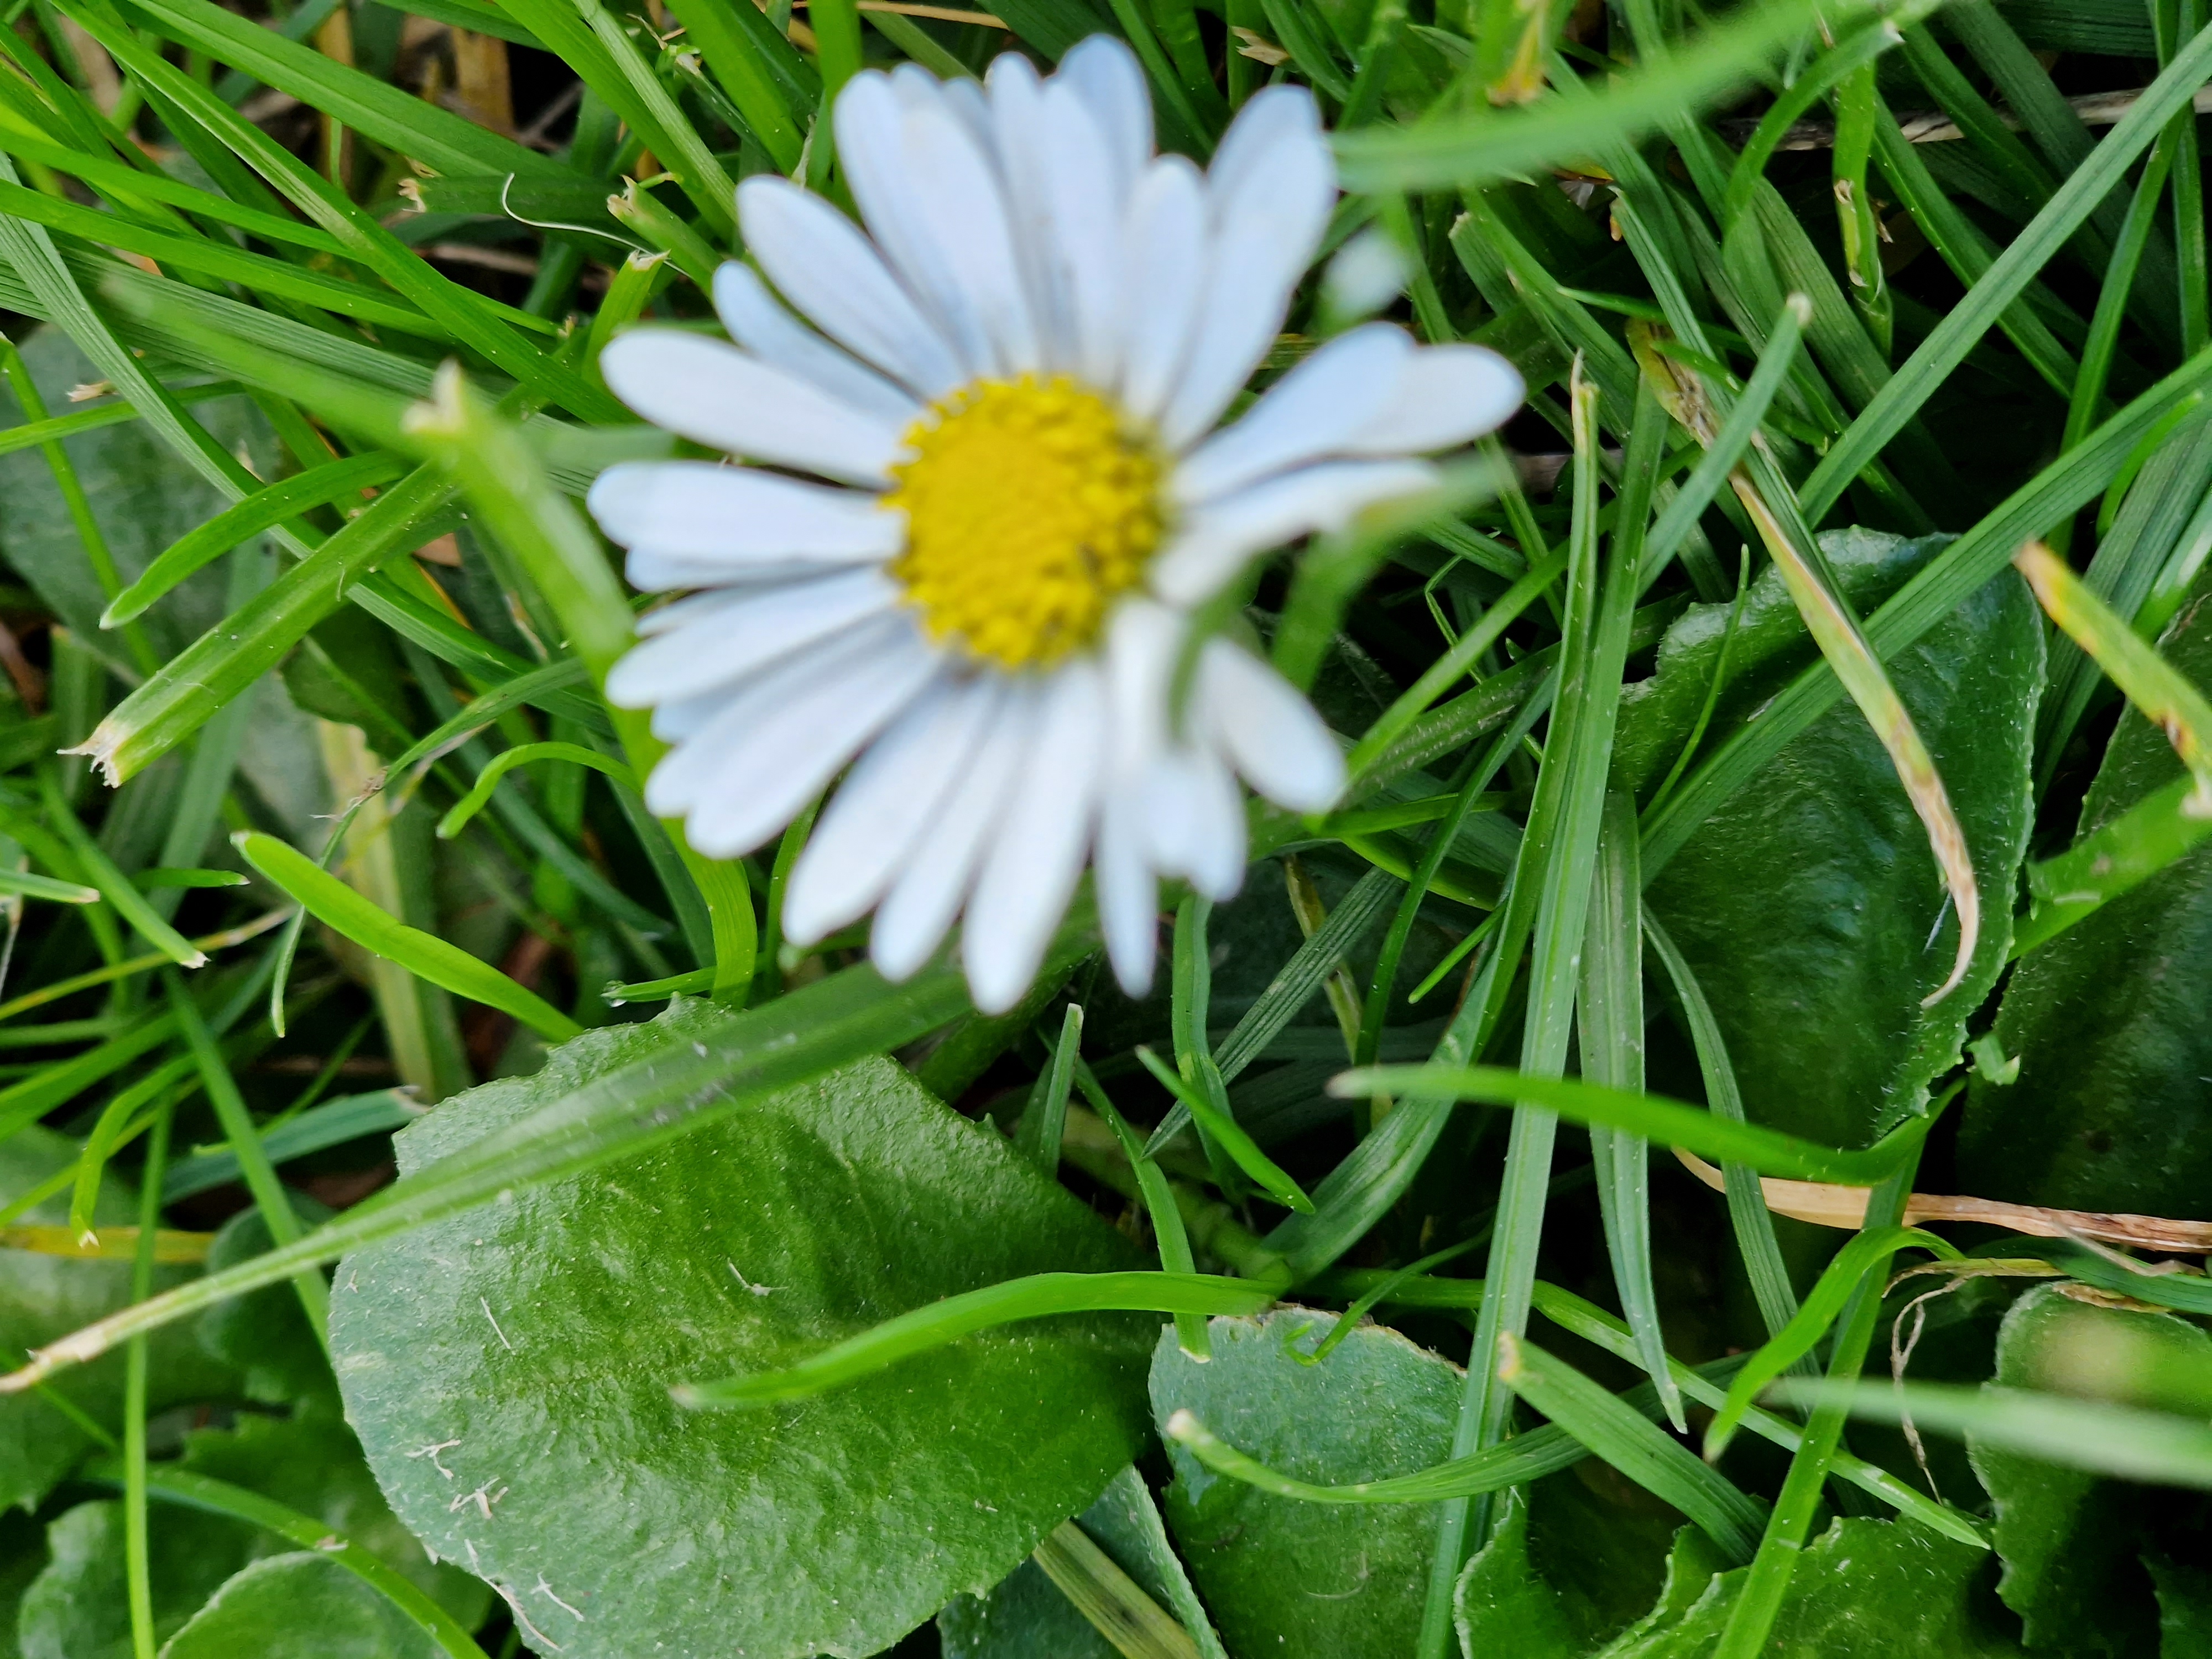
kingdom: Plantae
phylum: Tracheophyta
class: Magnoliopsida
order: Asterales
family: Asteraceae
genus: Bellis
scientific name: Bellis perennis
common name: Tusindfryd
